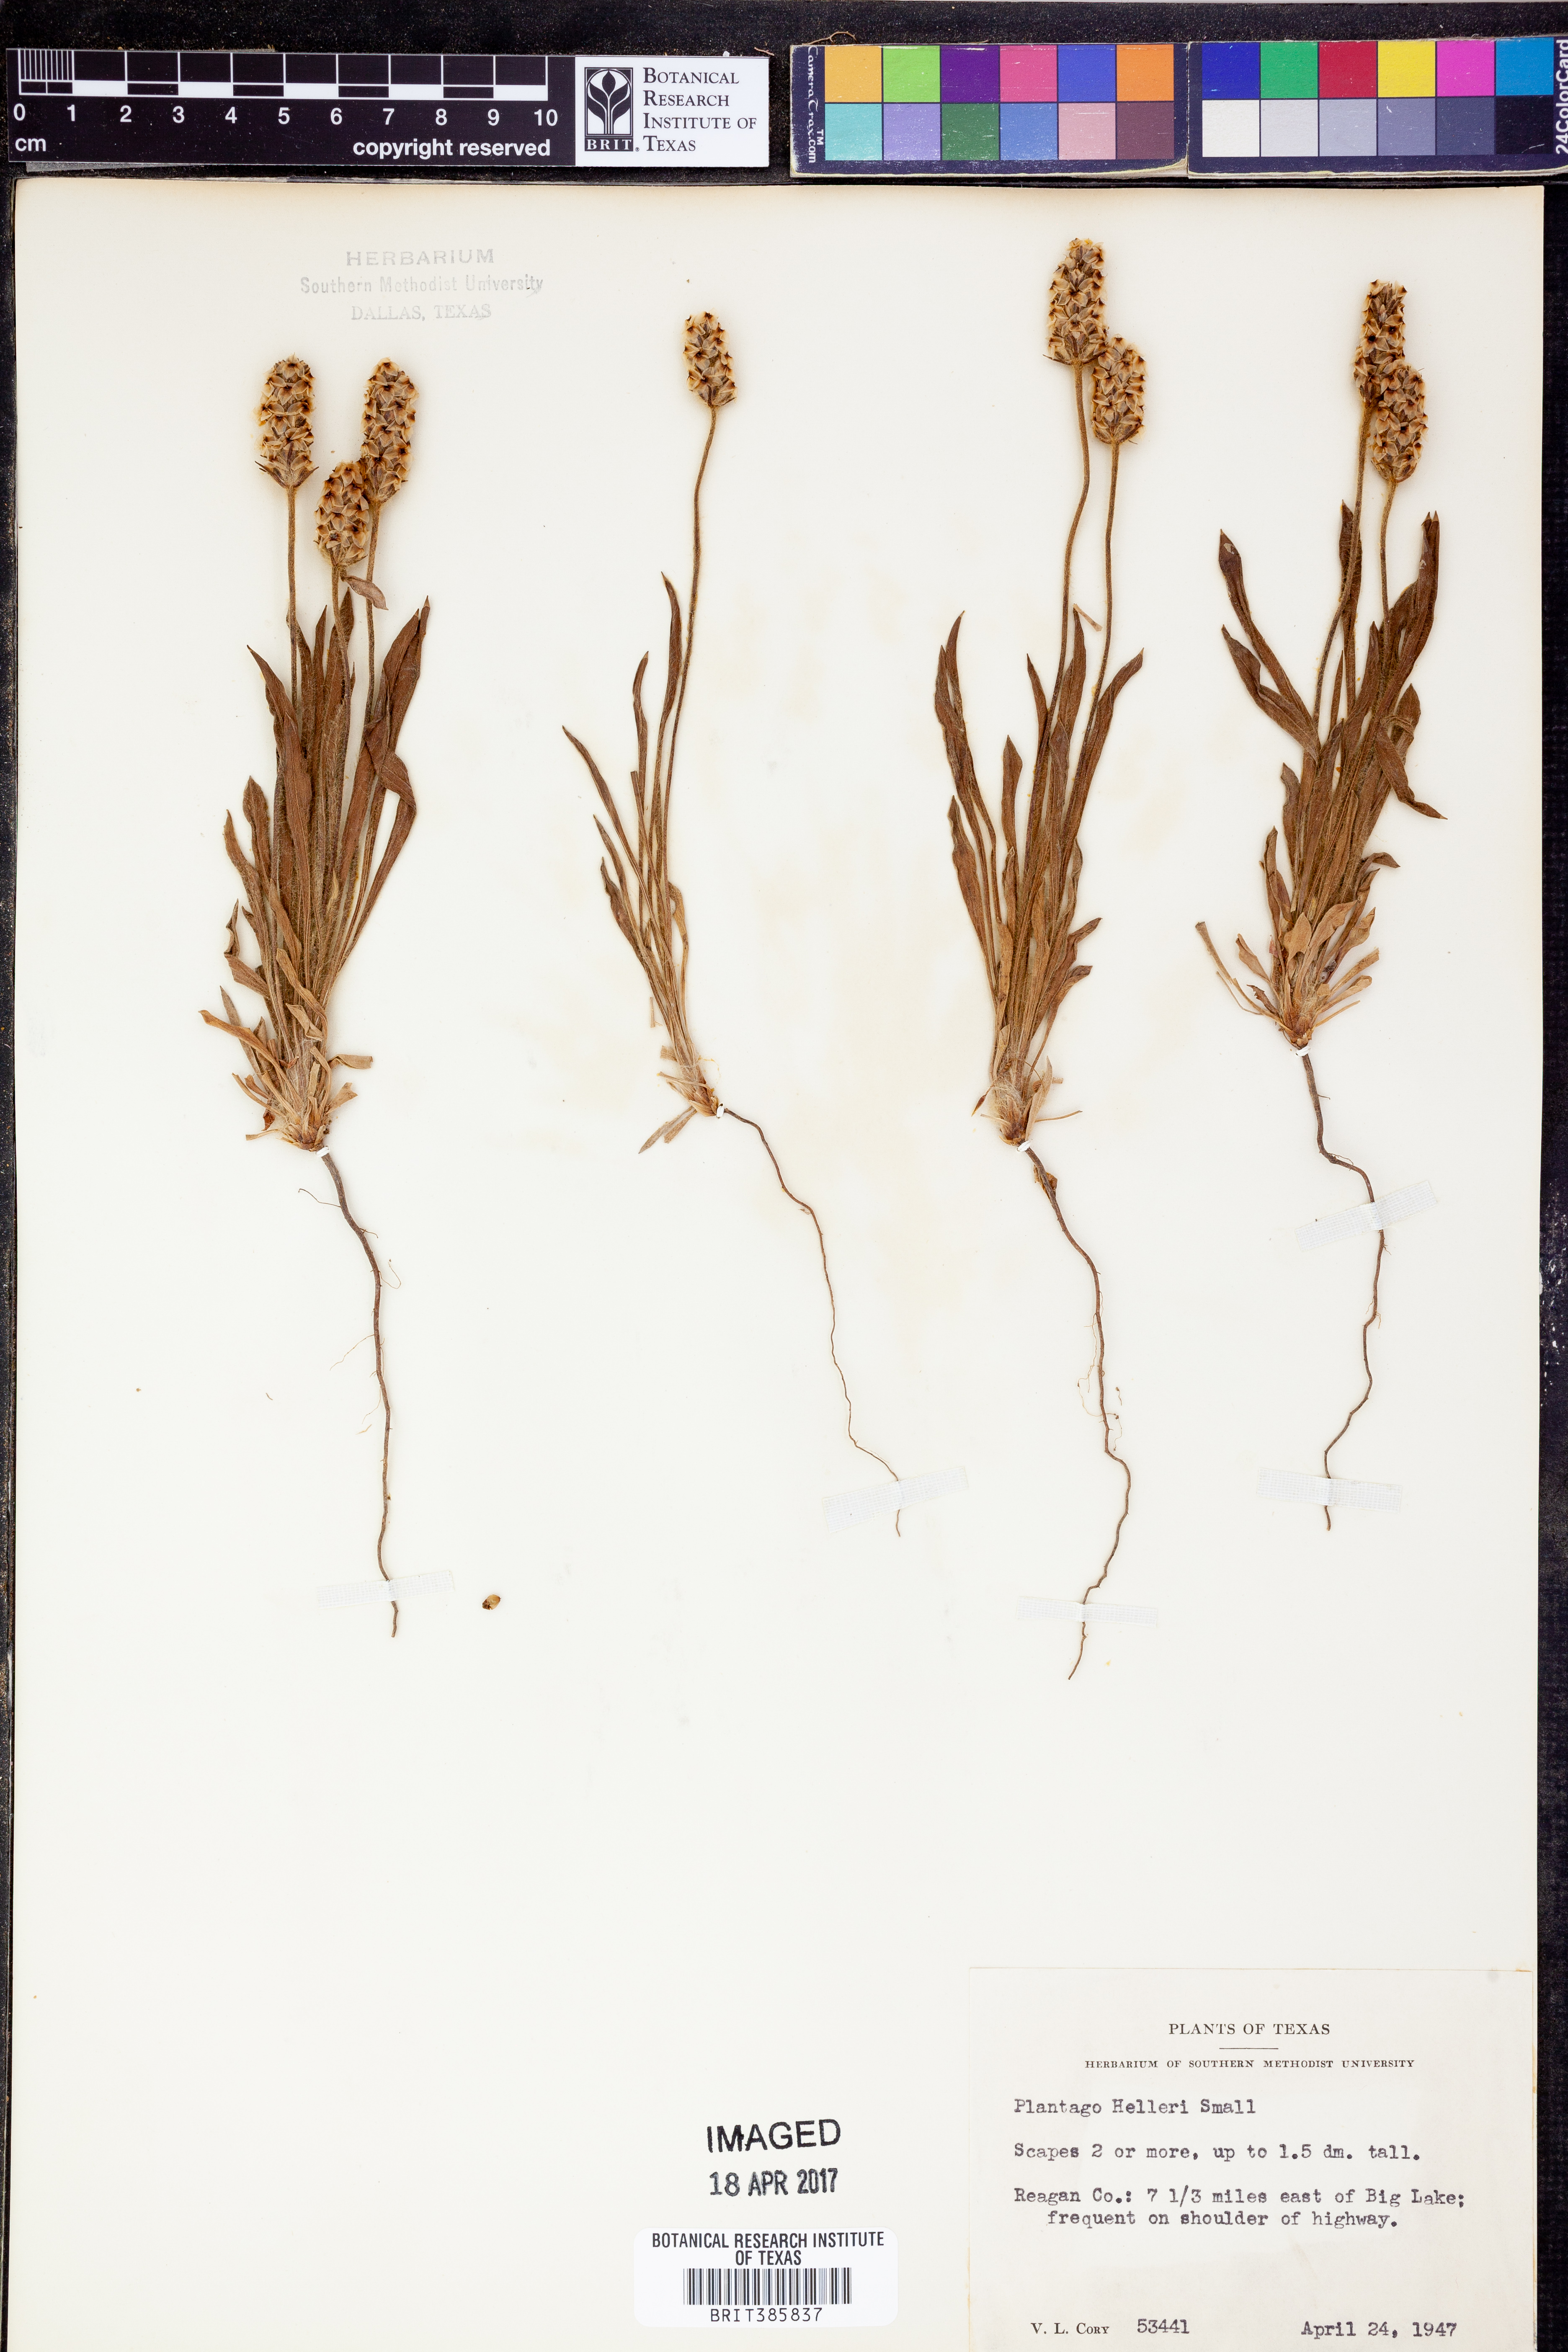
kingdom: Plantae
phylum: Tracheophyta
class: Magnoliopsida
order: Lamiales
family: Plantaginaceae
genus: Plantago
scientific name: Plantago helleri
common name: Heller's plantain
